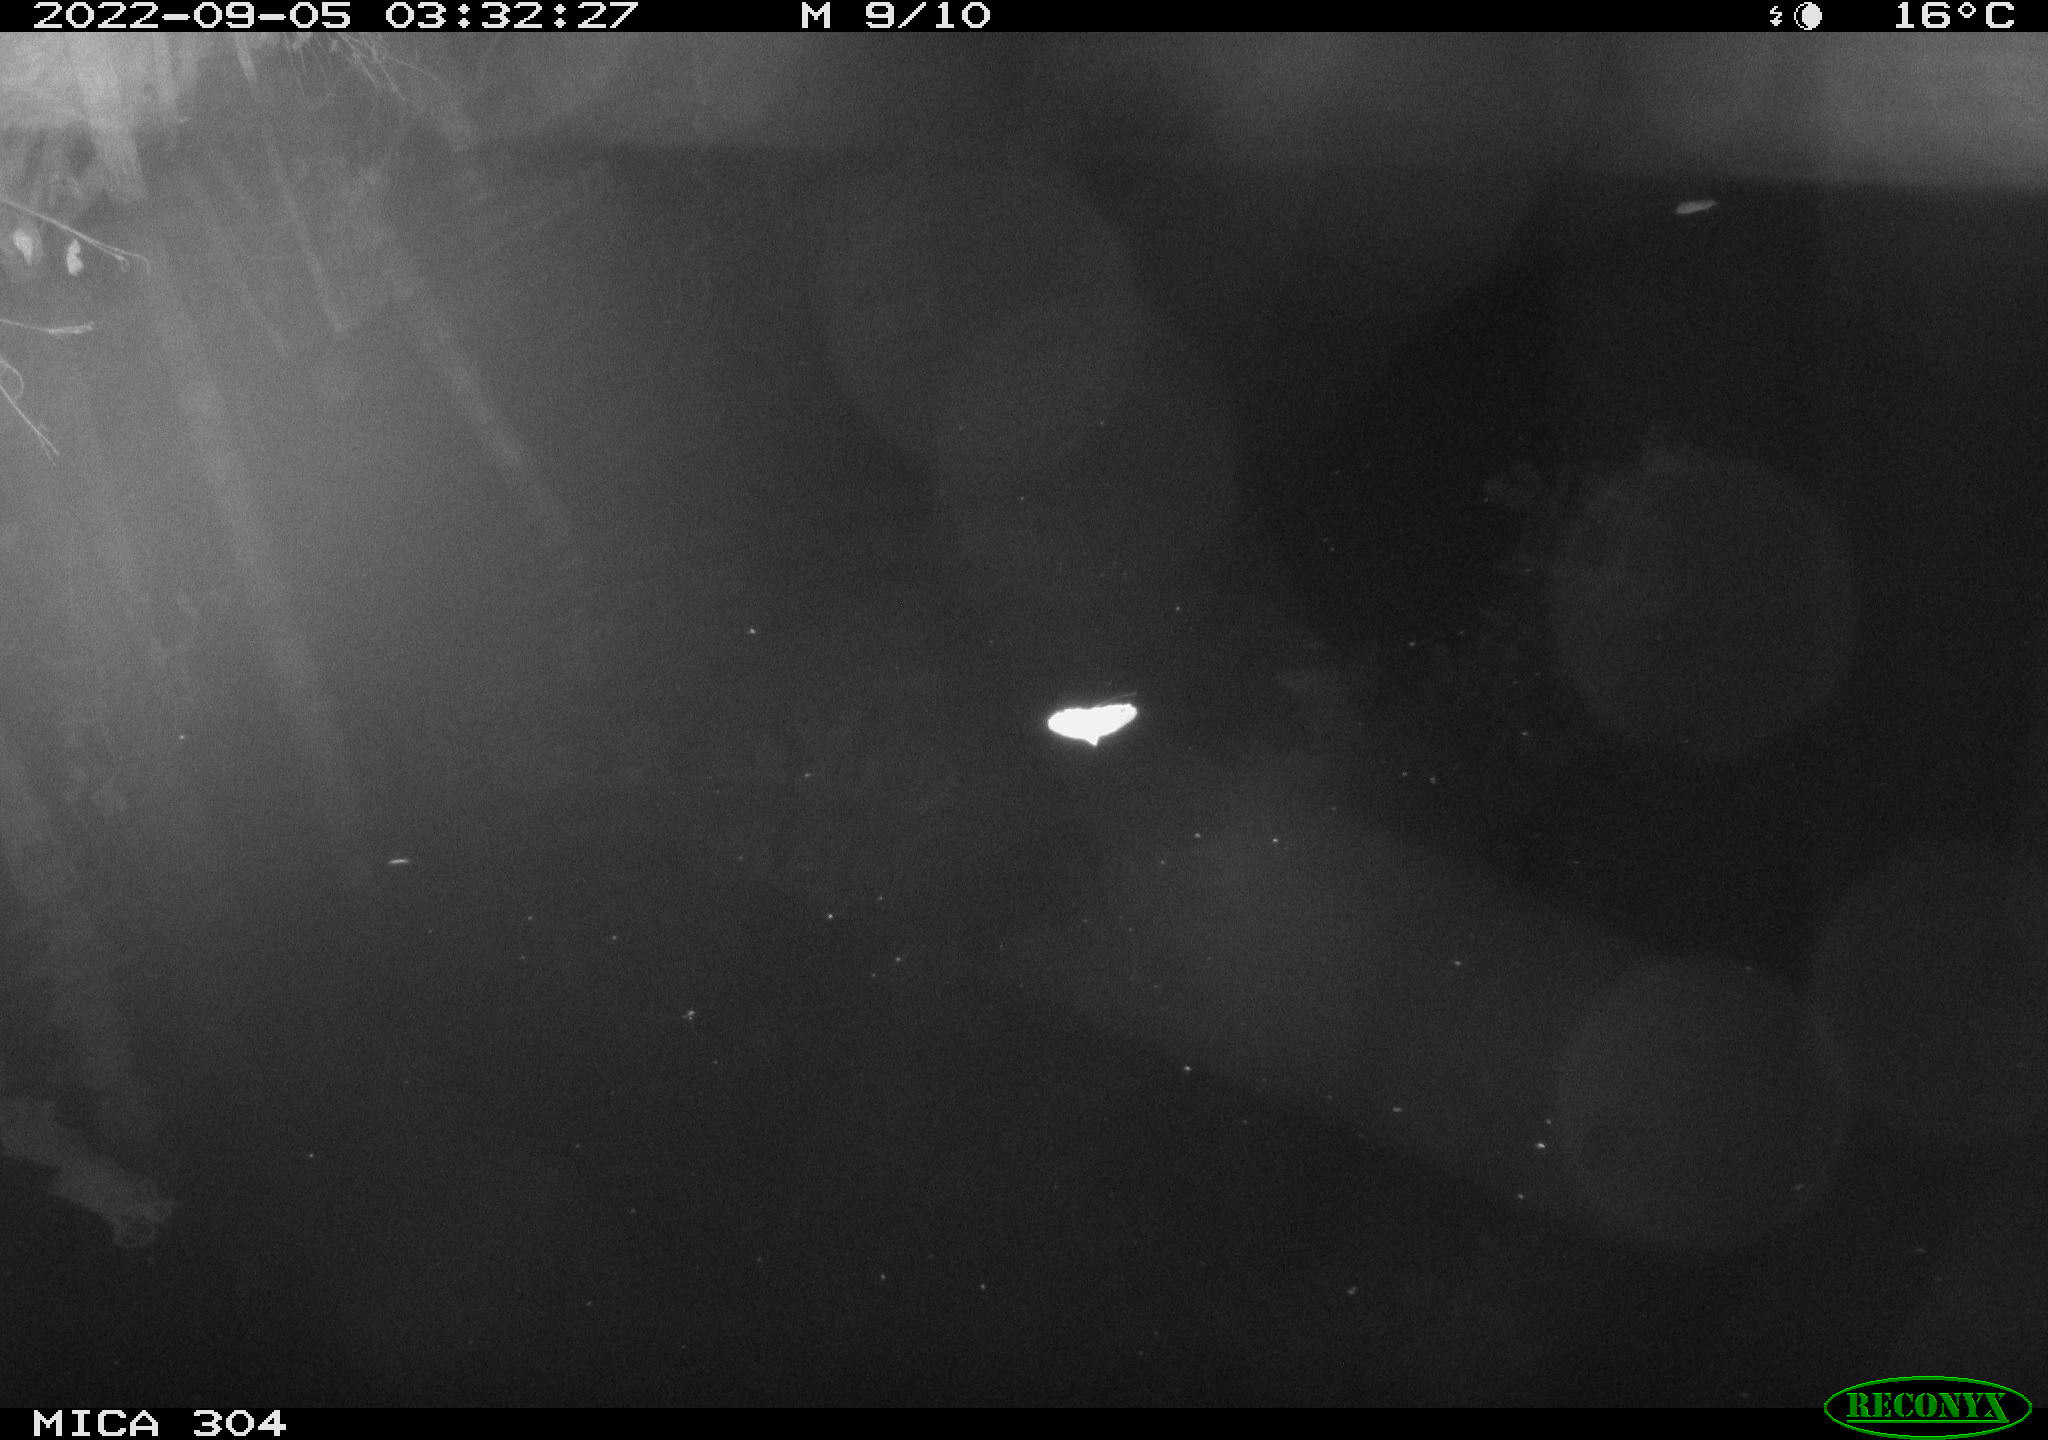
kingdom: Animalia
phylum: Chordata
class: Mammalia
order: Rodentia
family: Muridae
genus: Rattus
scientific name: Rattus norvegicus
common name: Brown rat
